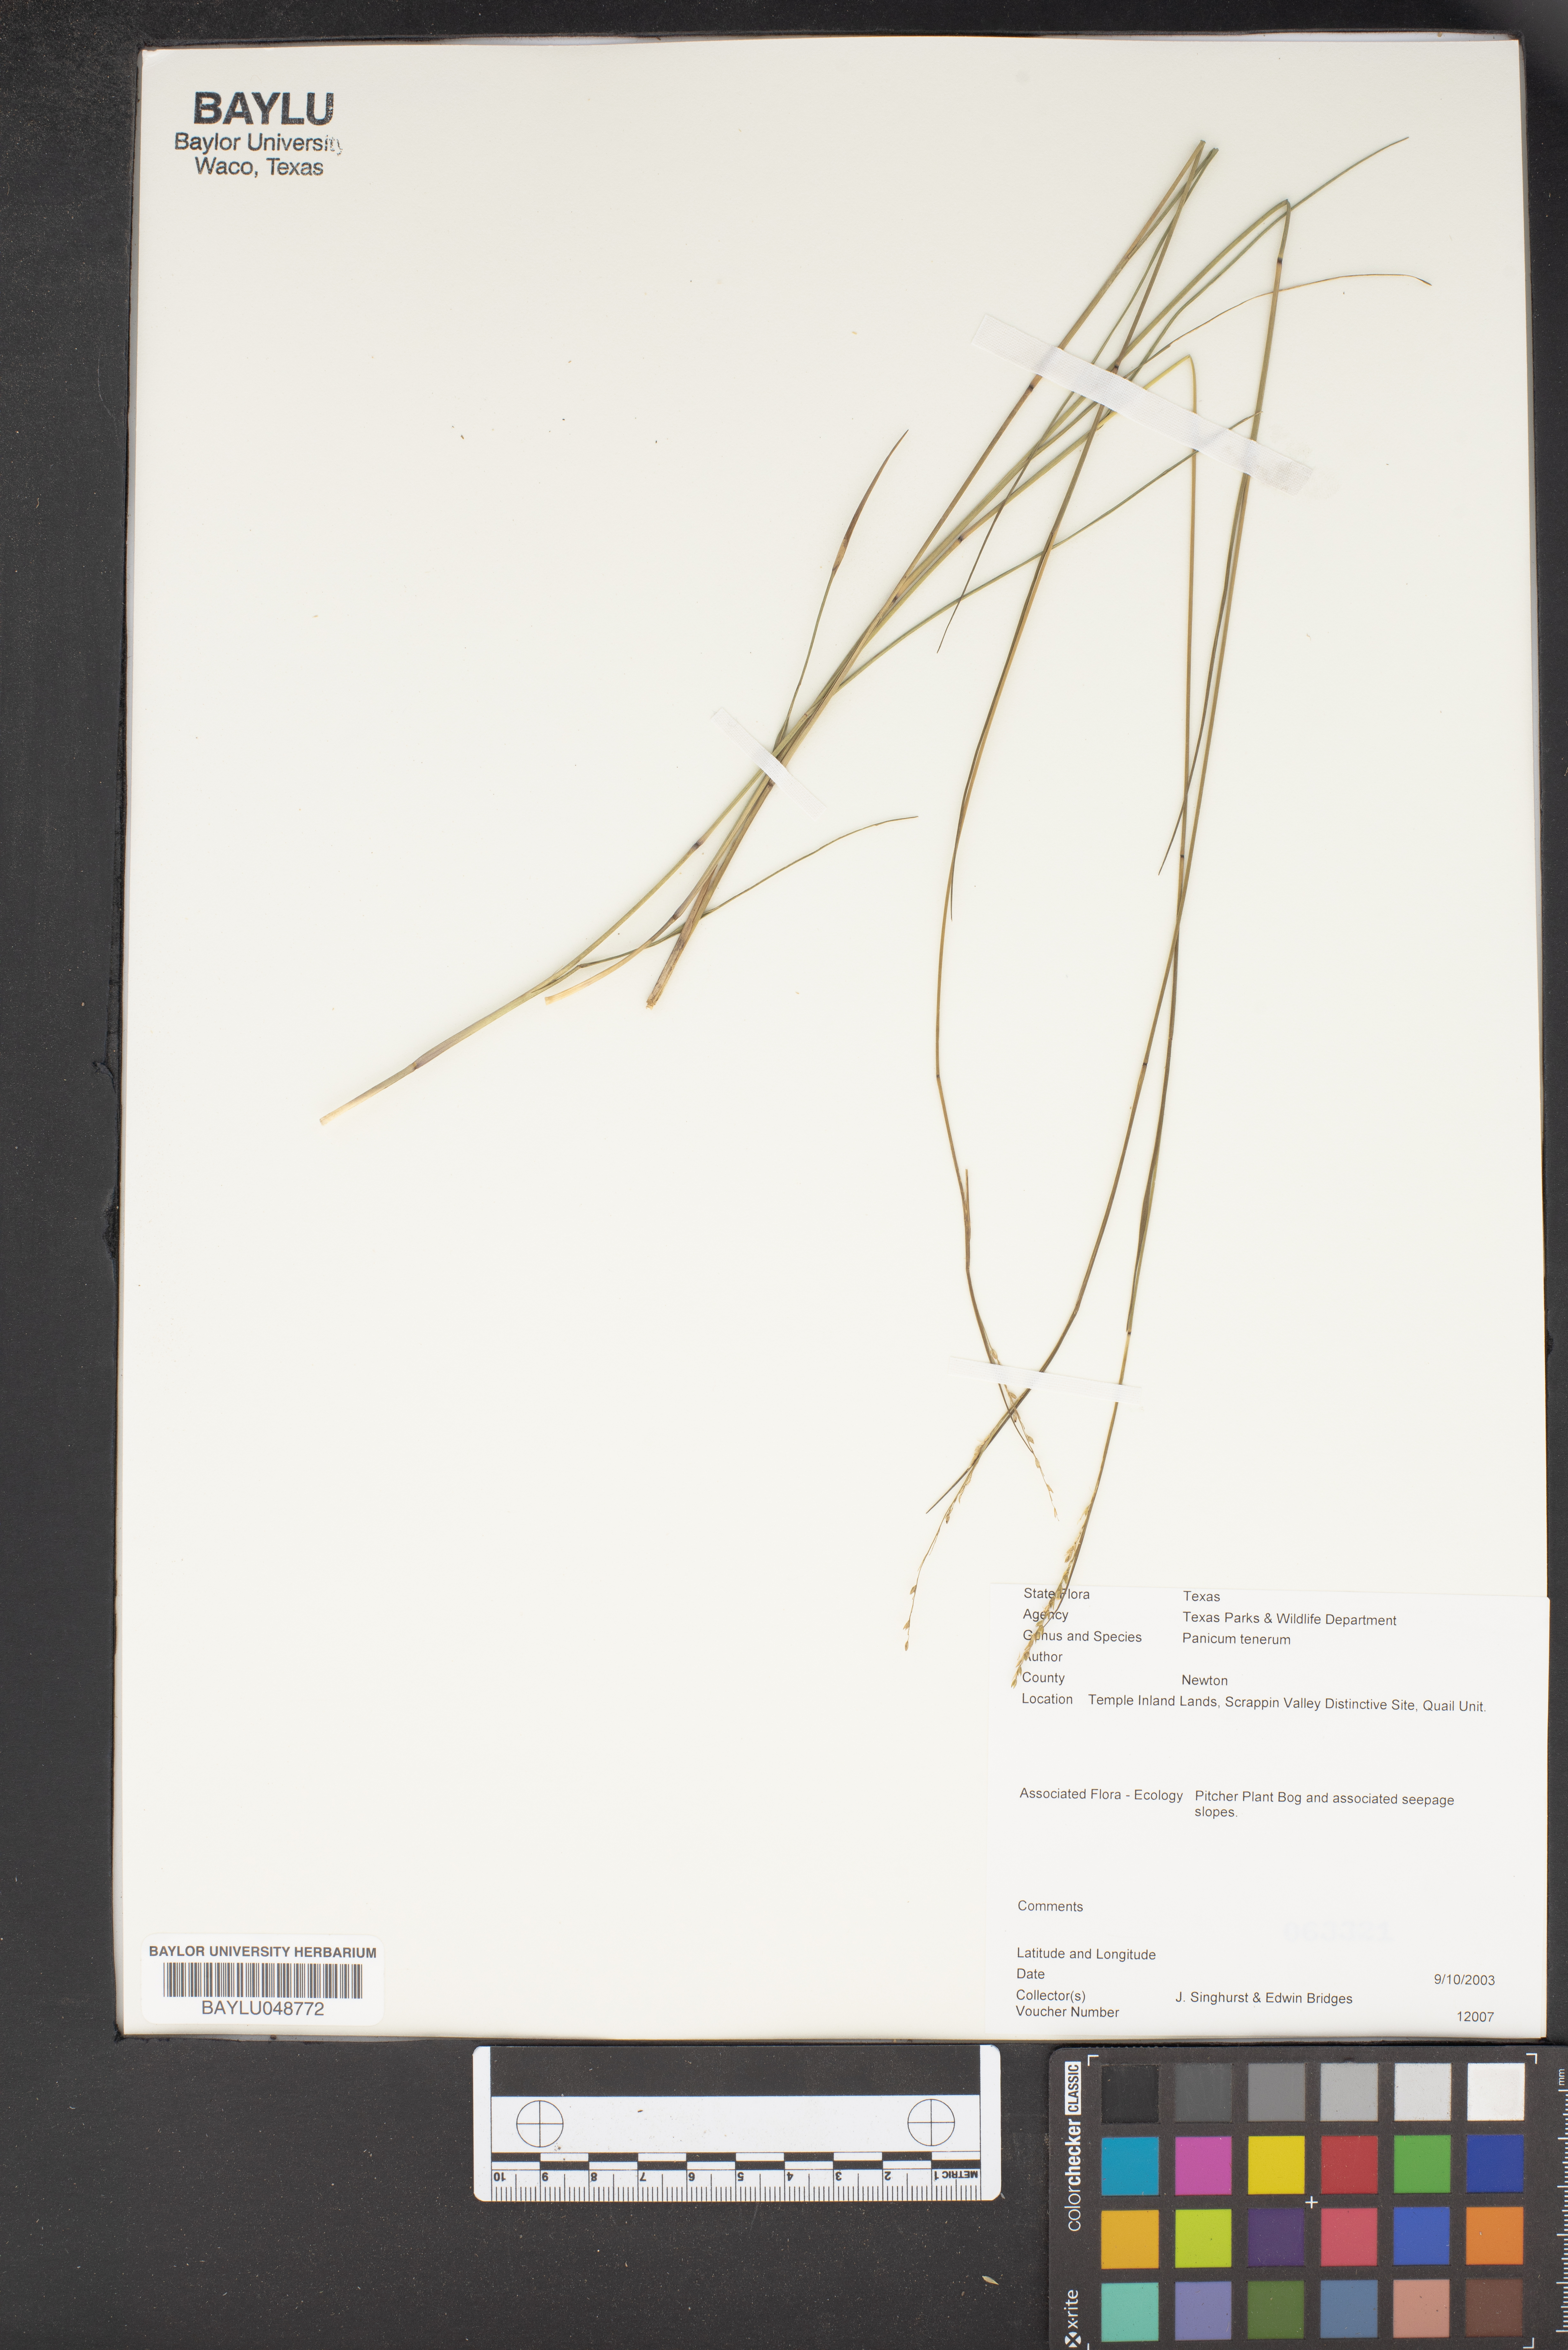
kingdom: Plantae
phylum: Tracheophyta
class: Liliopsida
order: Poales
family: Poaceae
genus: Coleataenia
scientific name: Coleataenia tenera
